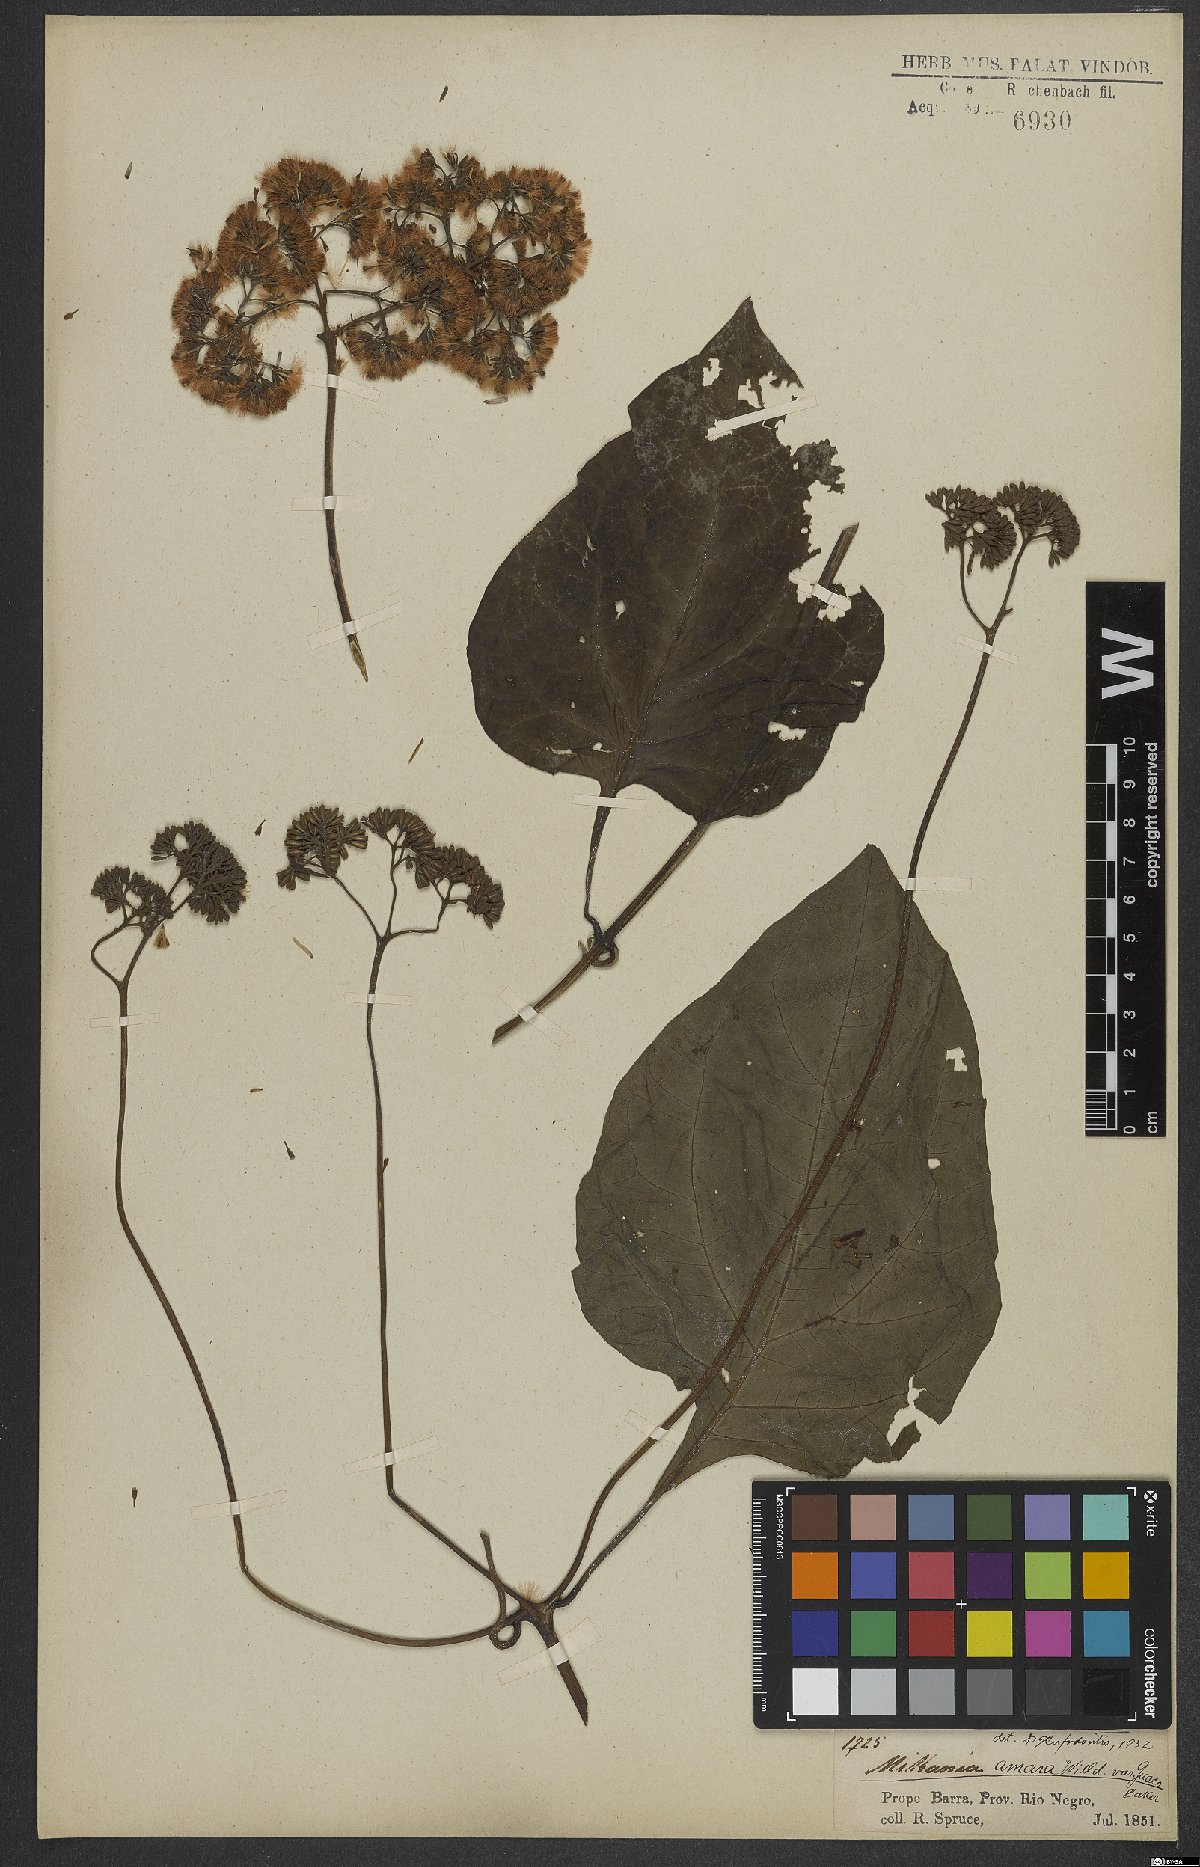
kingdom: Plantae
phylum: Tracheophyta
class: Magnoliopsida
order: Asterales
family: Asteraceae
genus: Mikania
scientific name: Mikania parviflora
